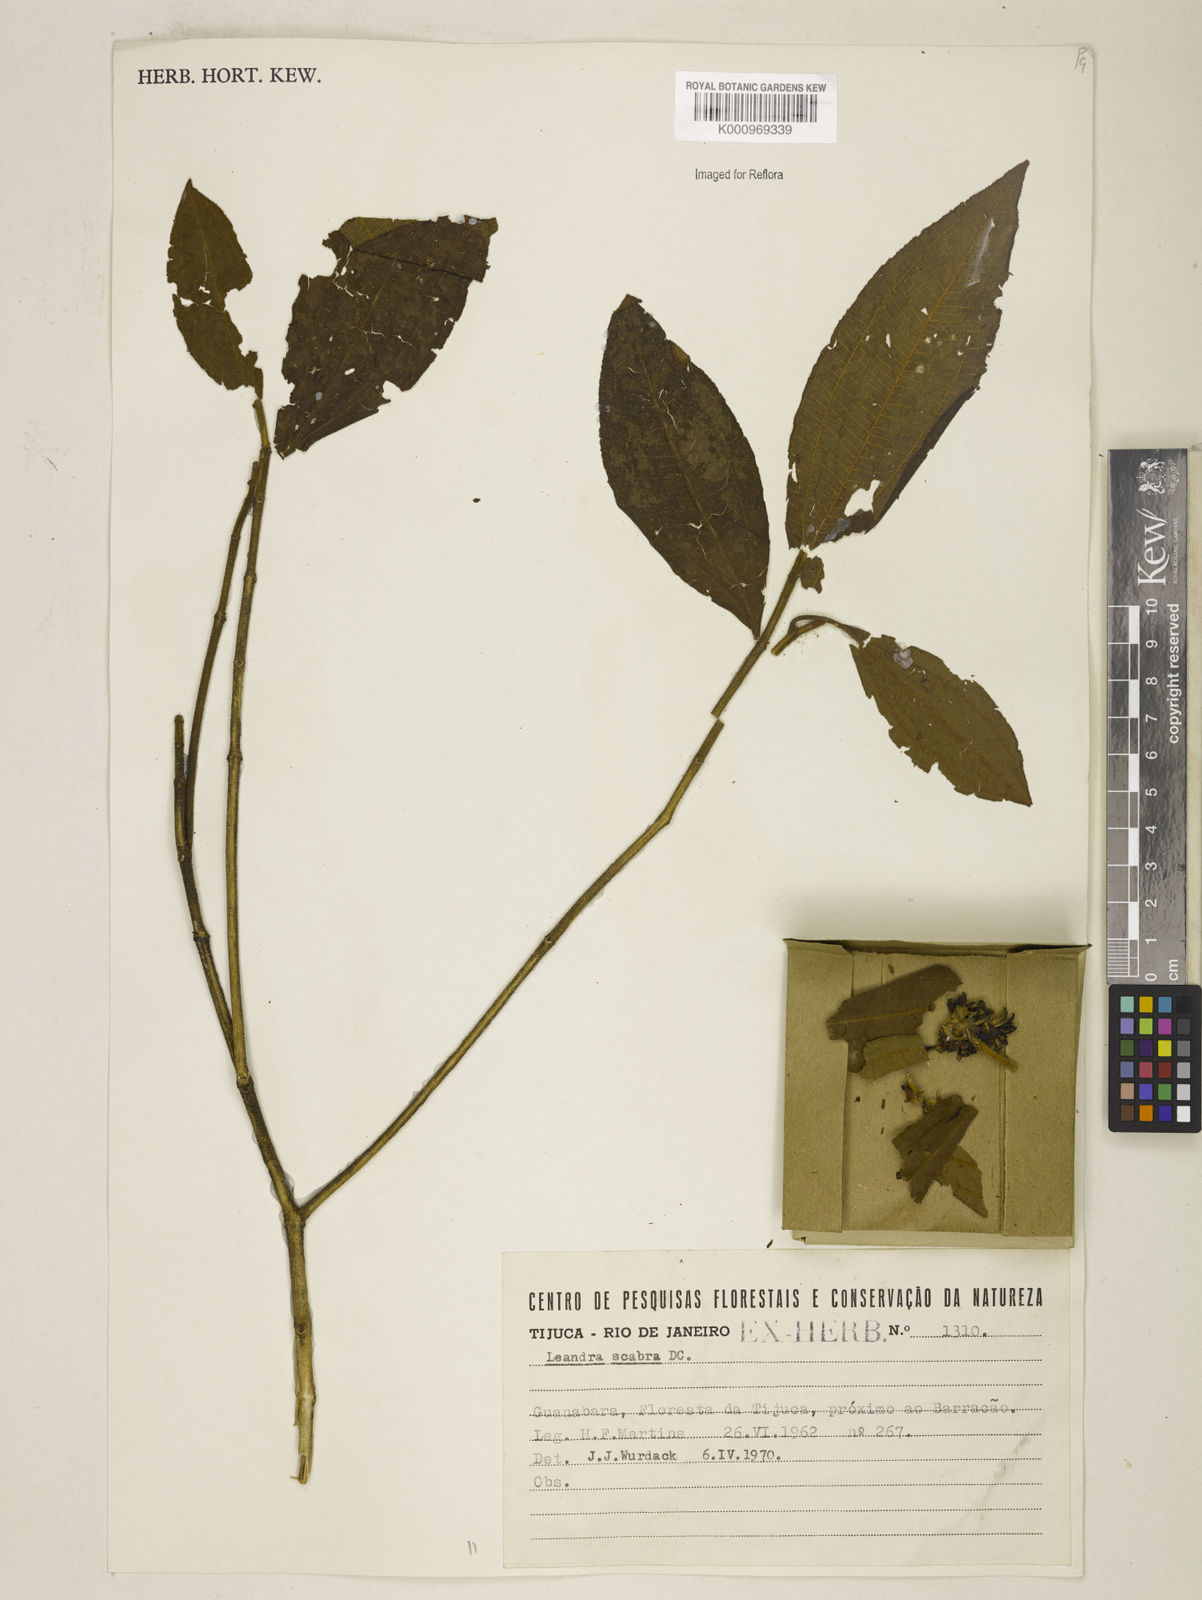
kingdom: Plantae
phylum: Tracheophyta
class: Magnoliopsida
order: Myrtales
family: Melastomataceae
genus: Miconia
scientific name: Miconia melastomoides
